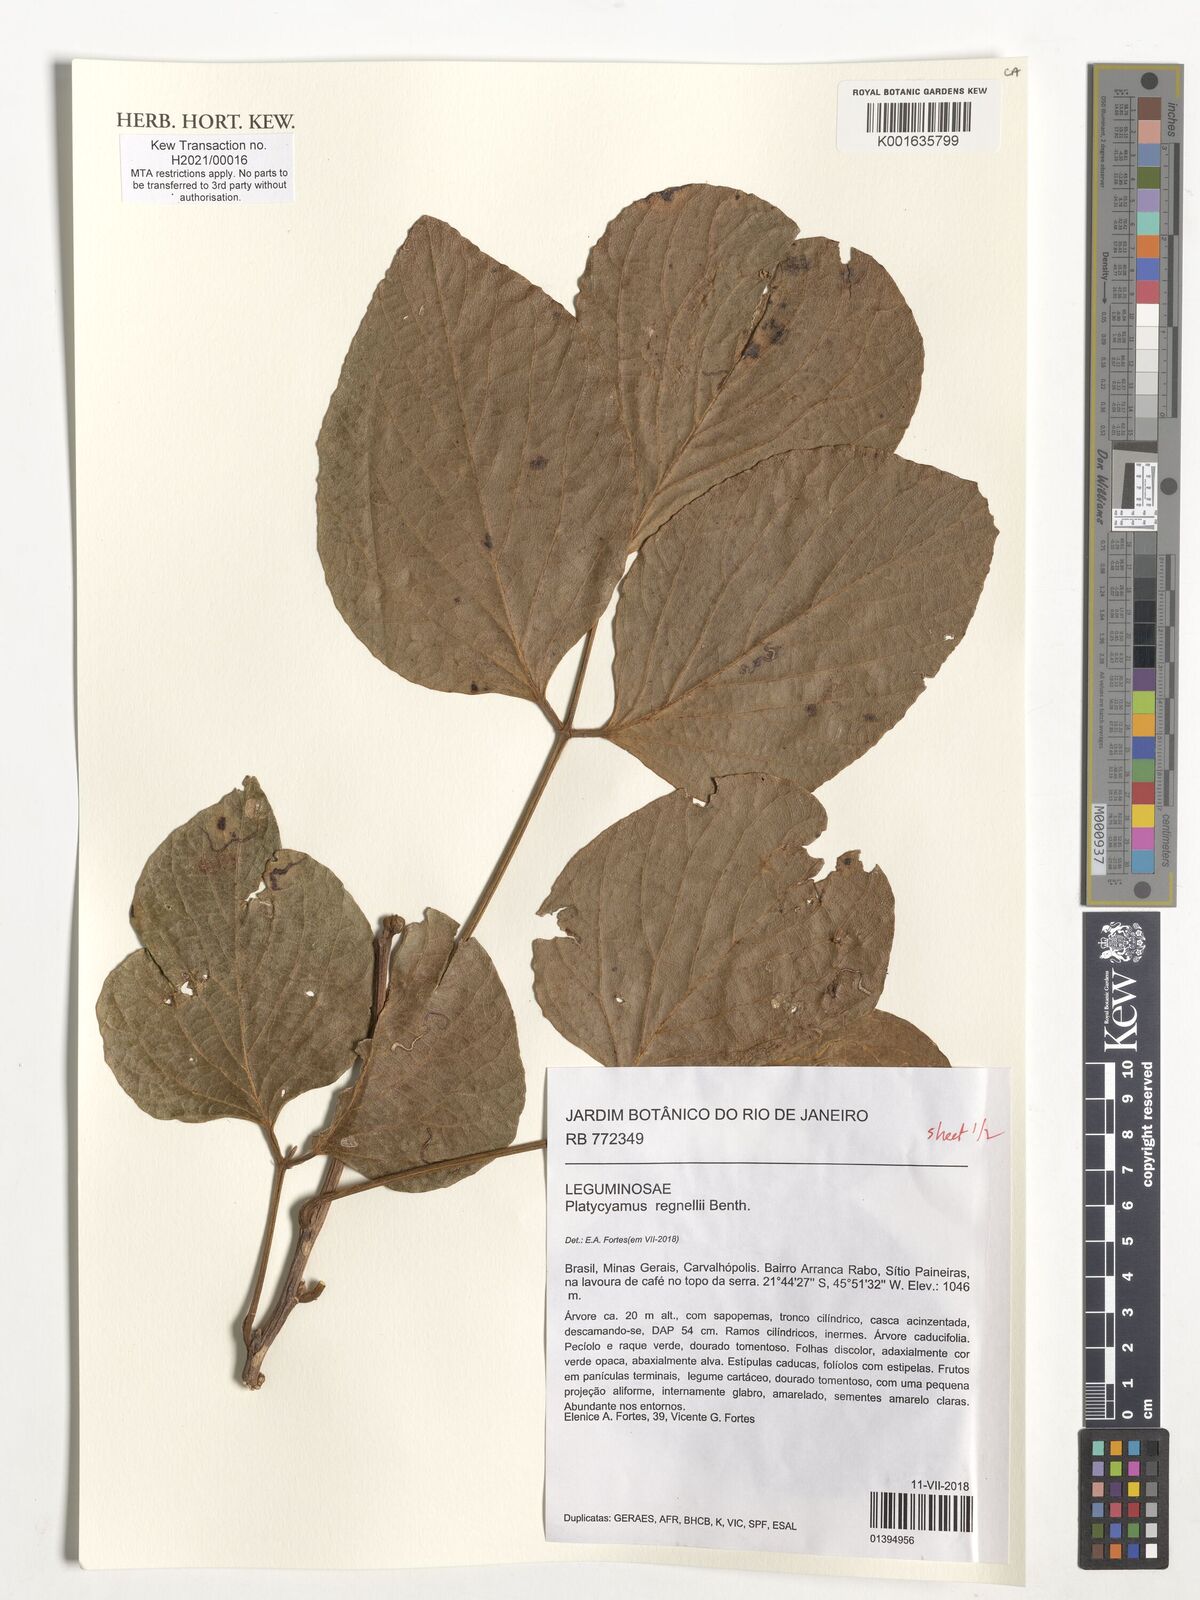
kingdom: Plantae
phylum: Tracheophyta
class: Magnoliopsida
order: Fabales
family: Fabaceae
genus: Platycyamus
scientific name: Platycyamus regnellii
